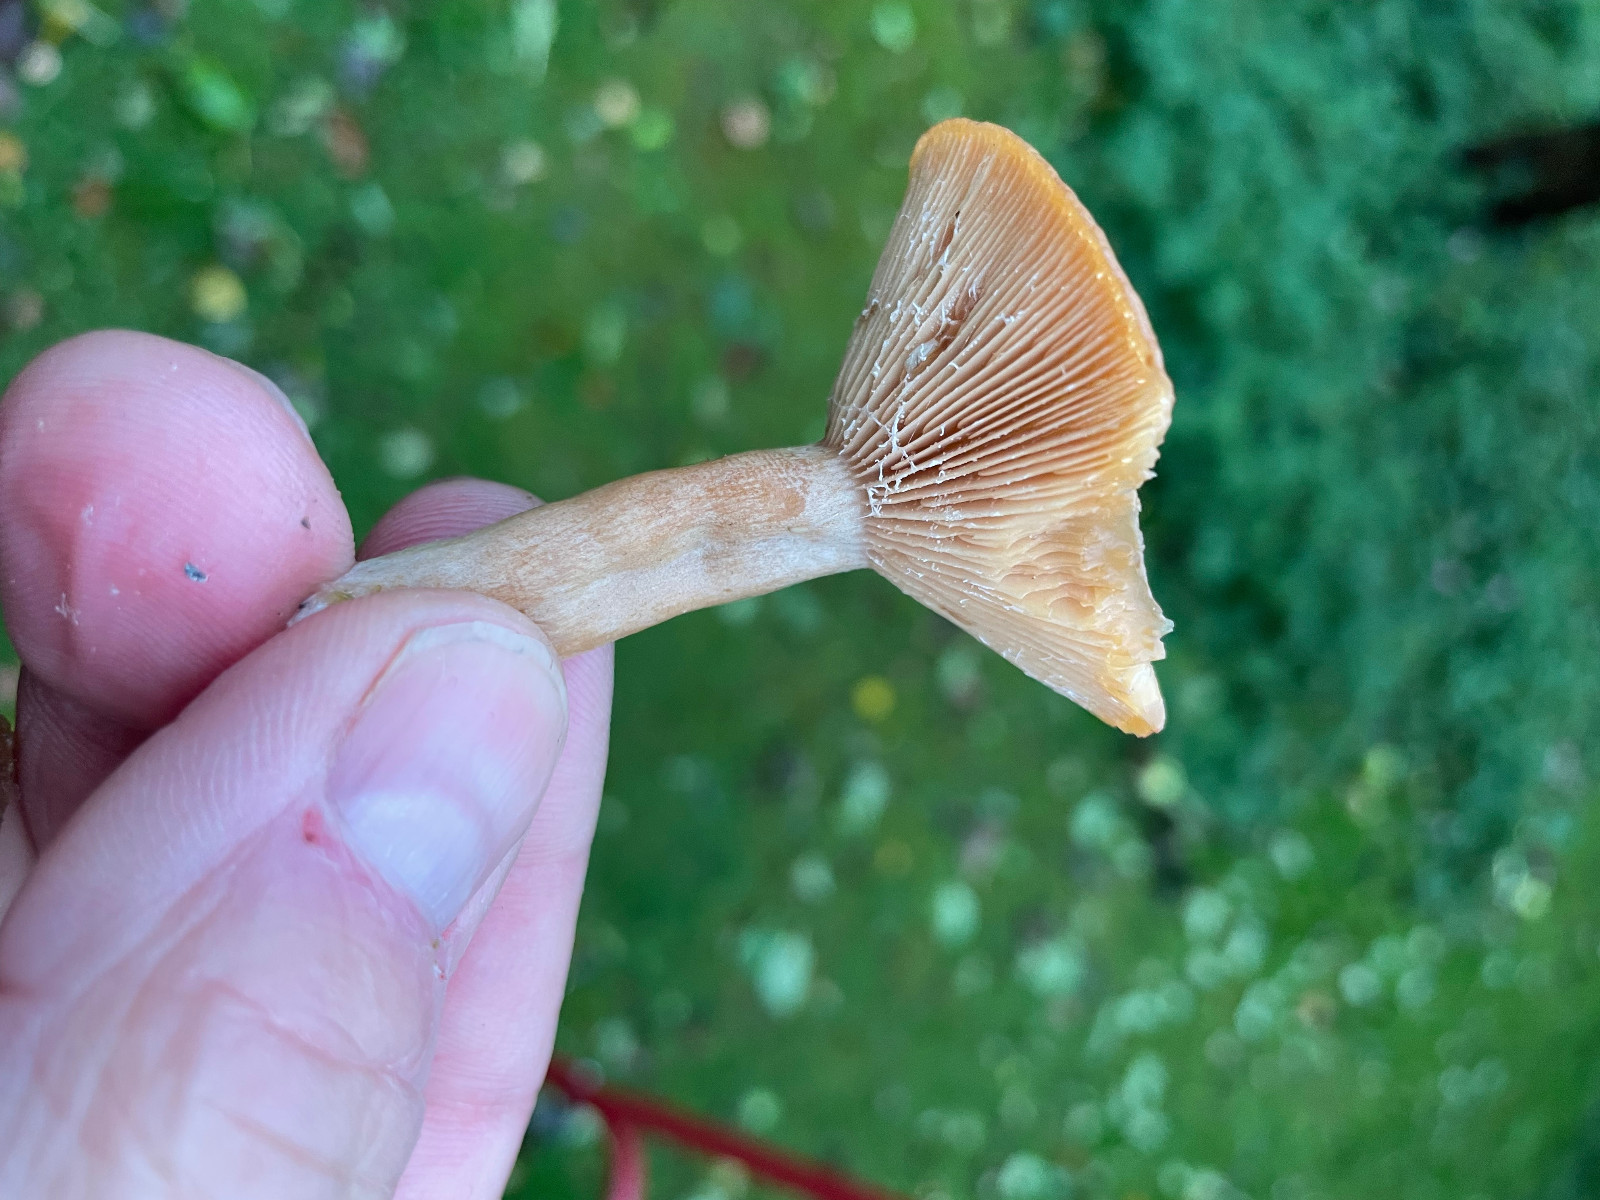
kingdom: Fungi
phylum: Basidiomycota
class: Agaricomycetes
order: Russulales
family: Russulaceae
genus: Lactarius
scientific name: Lactarius glyciosmus
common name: kokos-mælkehat
